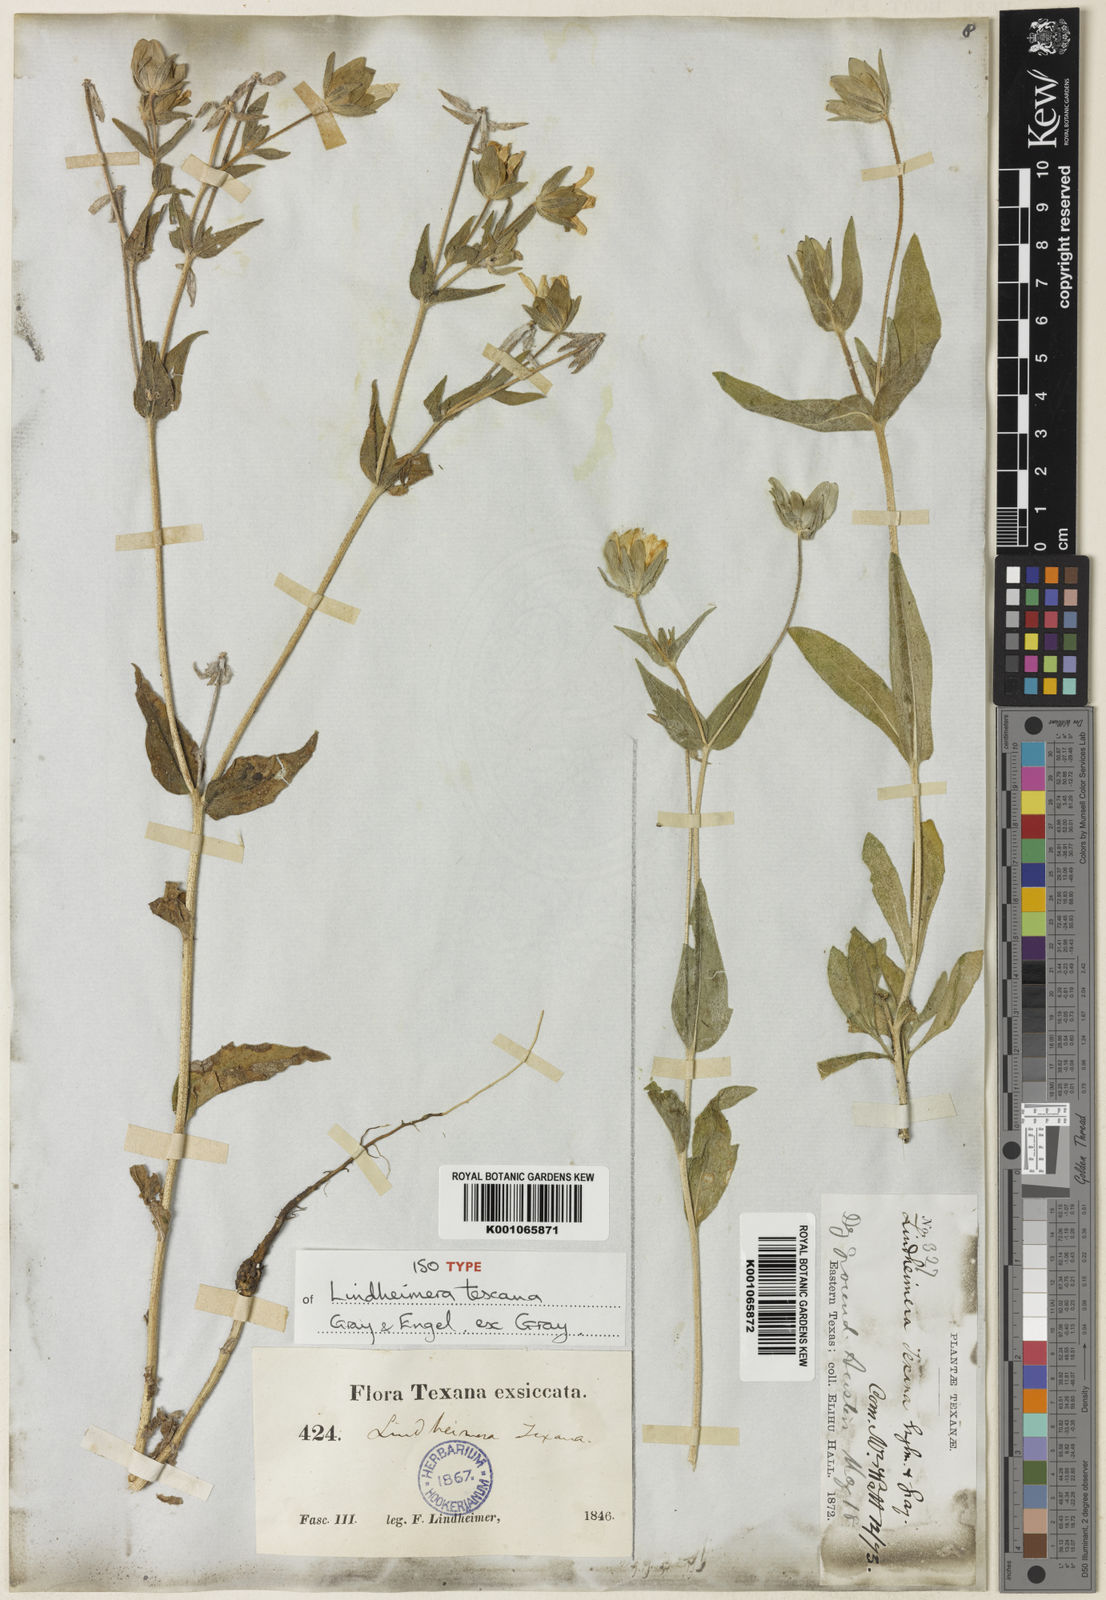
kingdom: Plantae
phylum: Tracheophyta
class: Magnoliopsida
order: Asterales
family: Asteraceae
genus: Lindheimera
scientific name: Lindheimera texana
